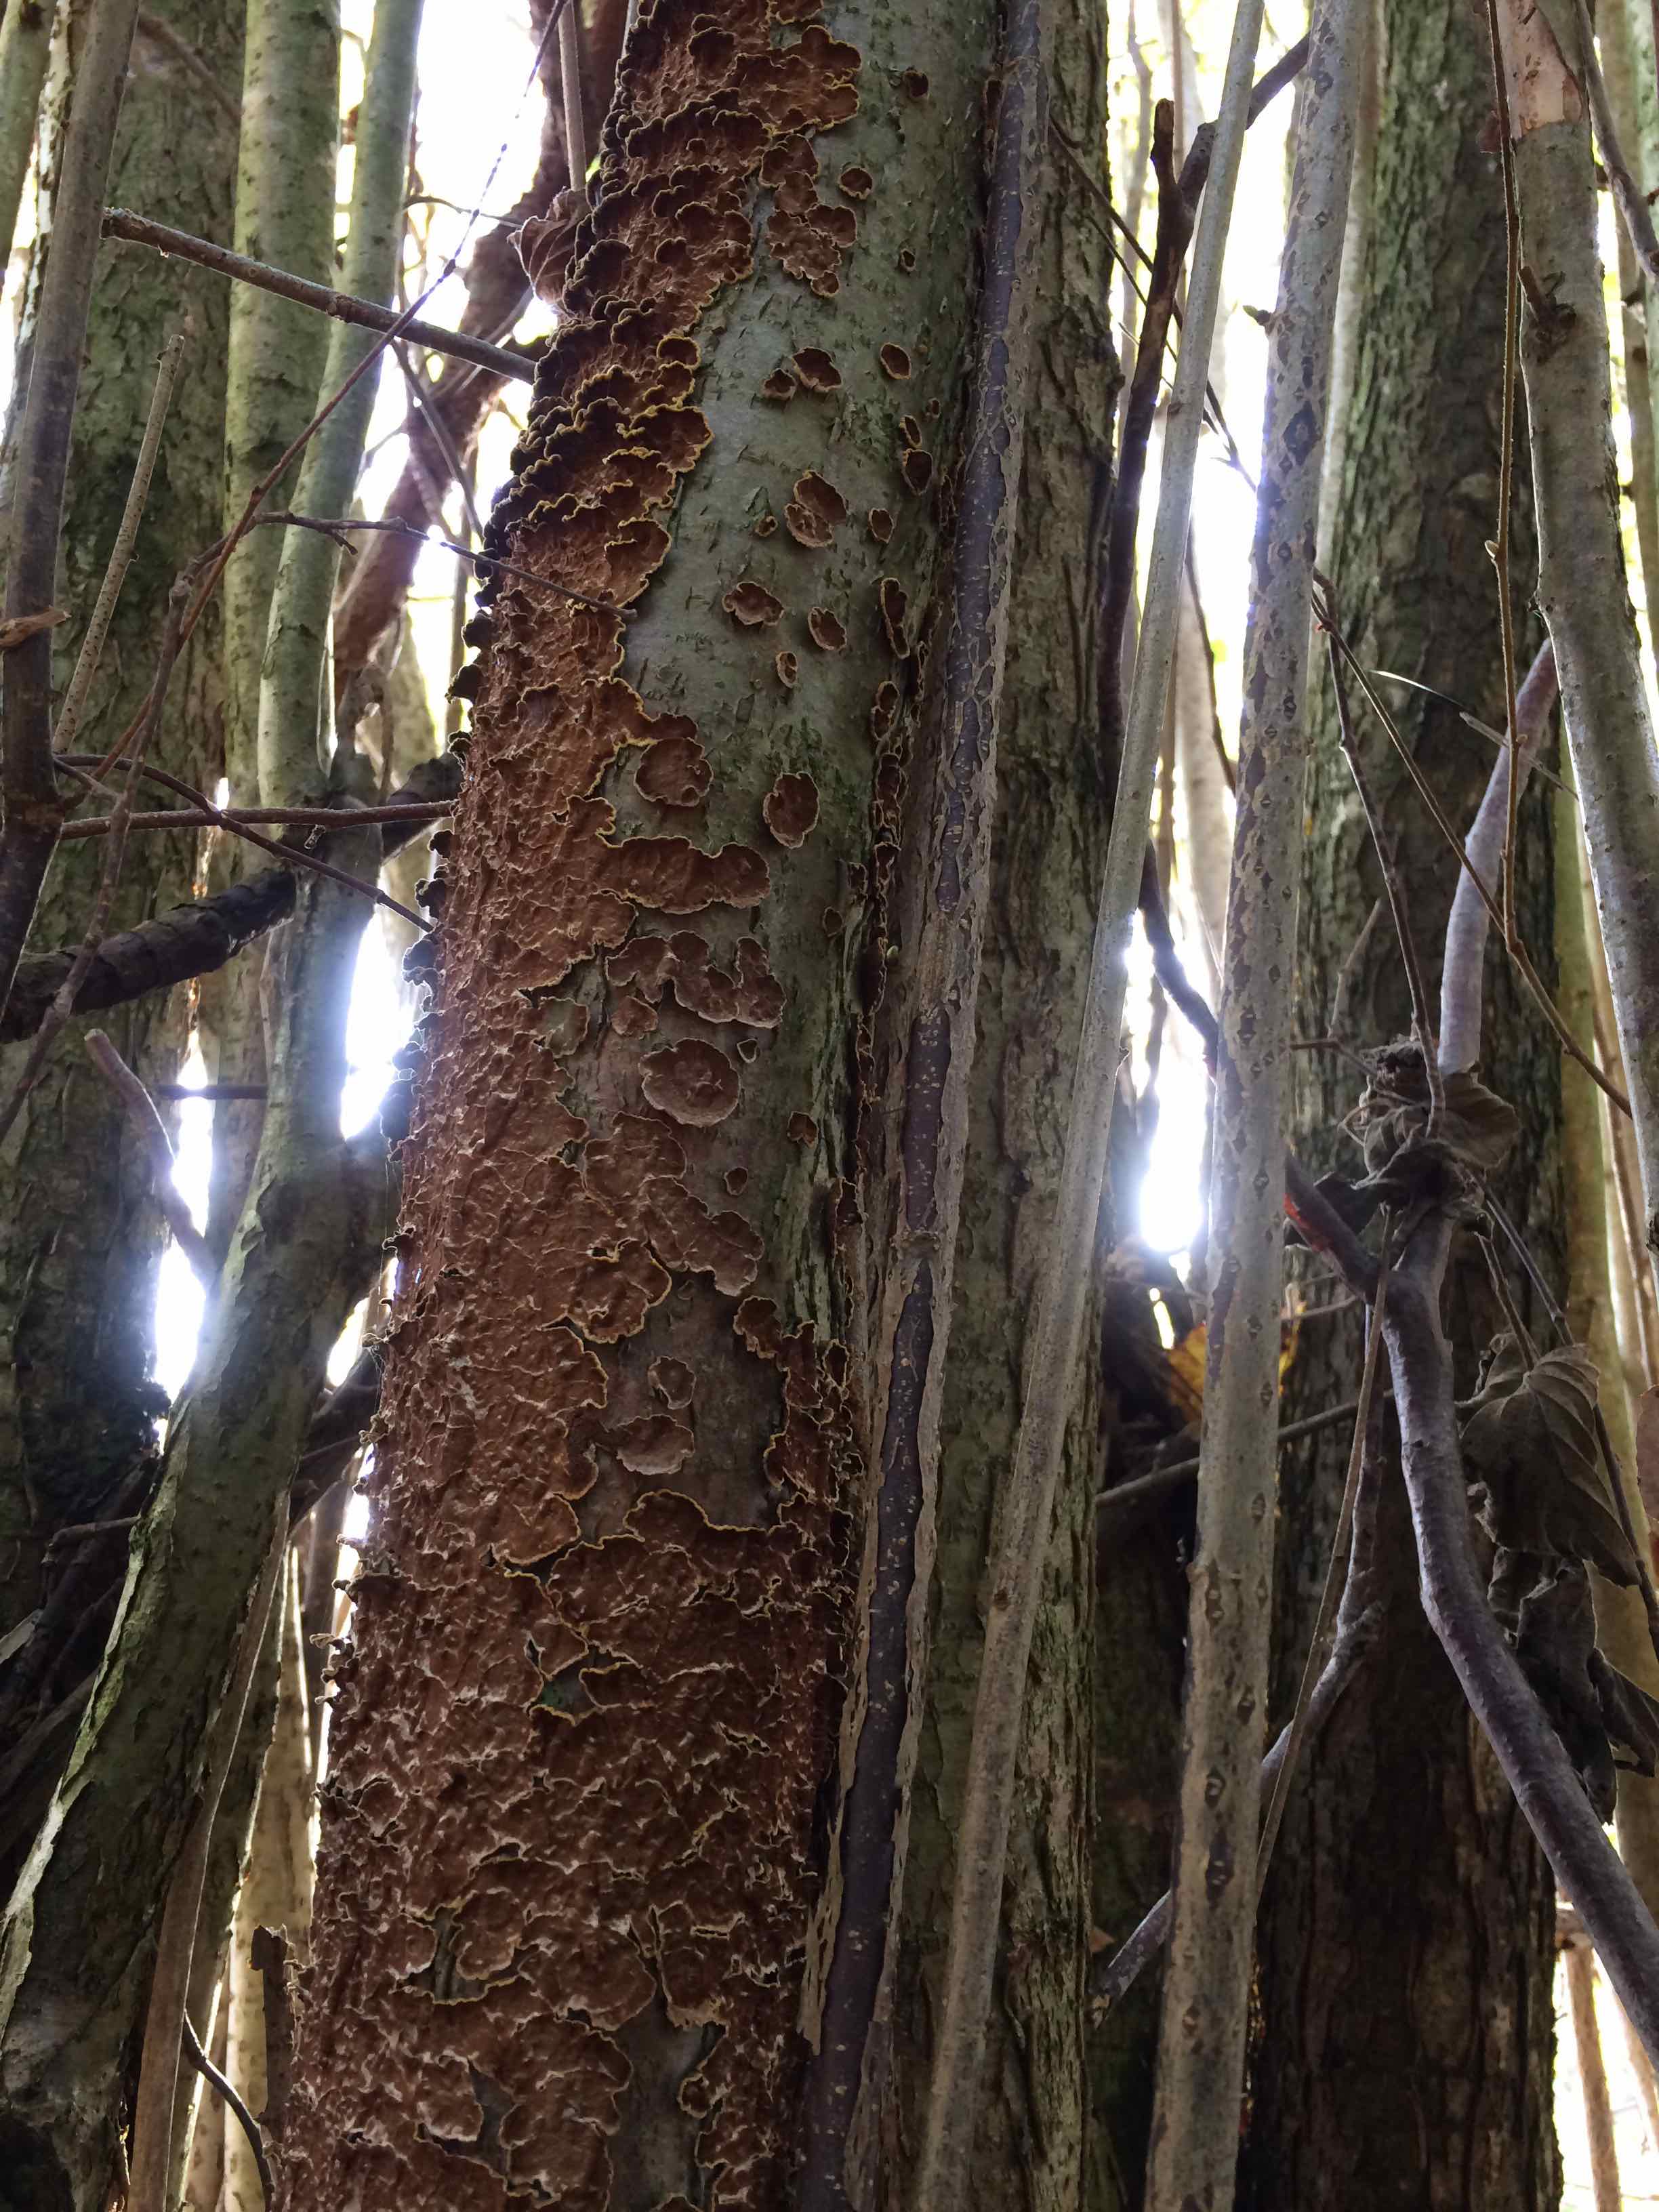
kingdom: Fungi
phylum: Basidiomycota
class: Agaricomycetes
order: Hymenochaetales
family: Hymenochaetaceae
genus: Hydnoporia
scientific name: Hydnoporia tabacina
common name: tobaksbrun ruslædersvamp
